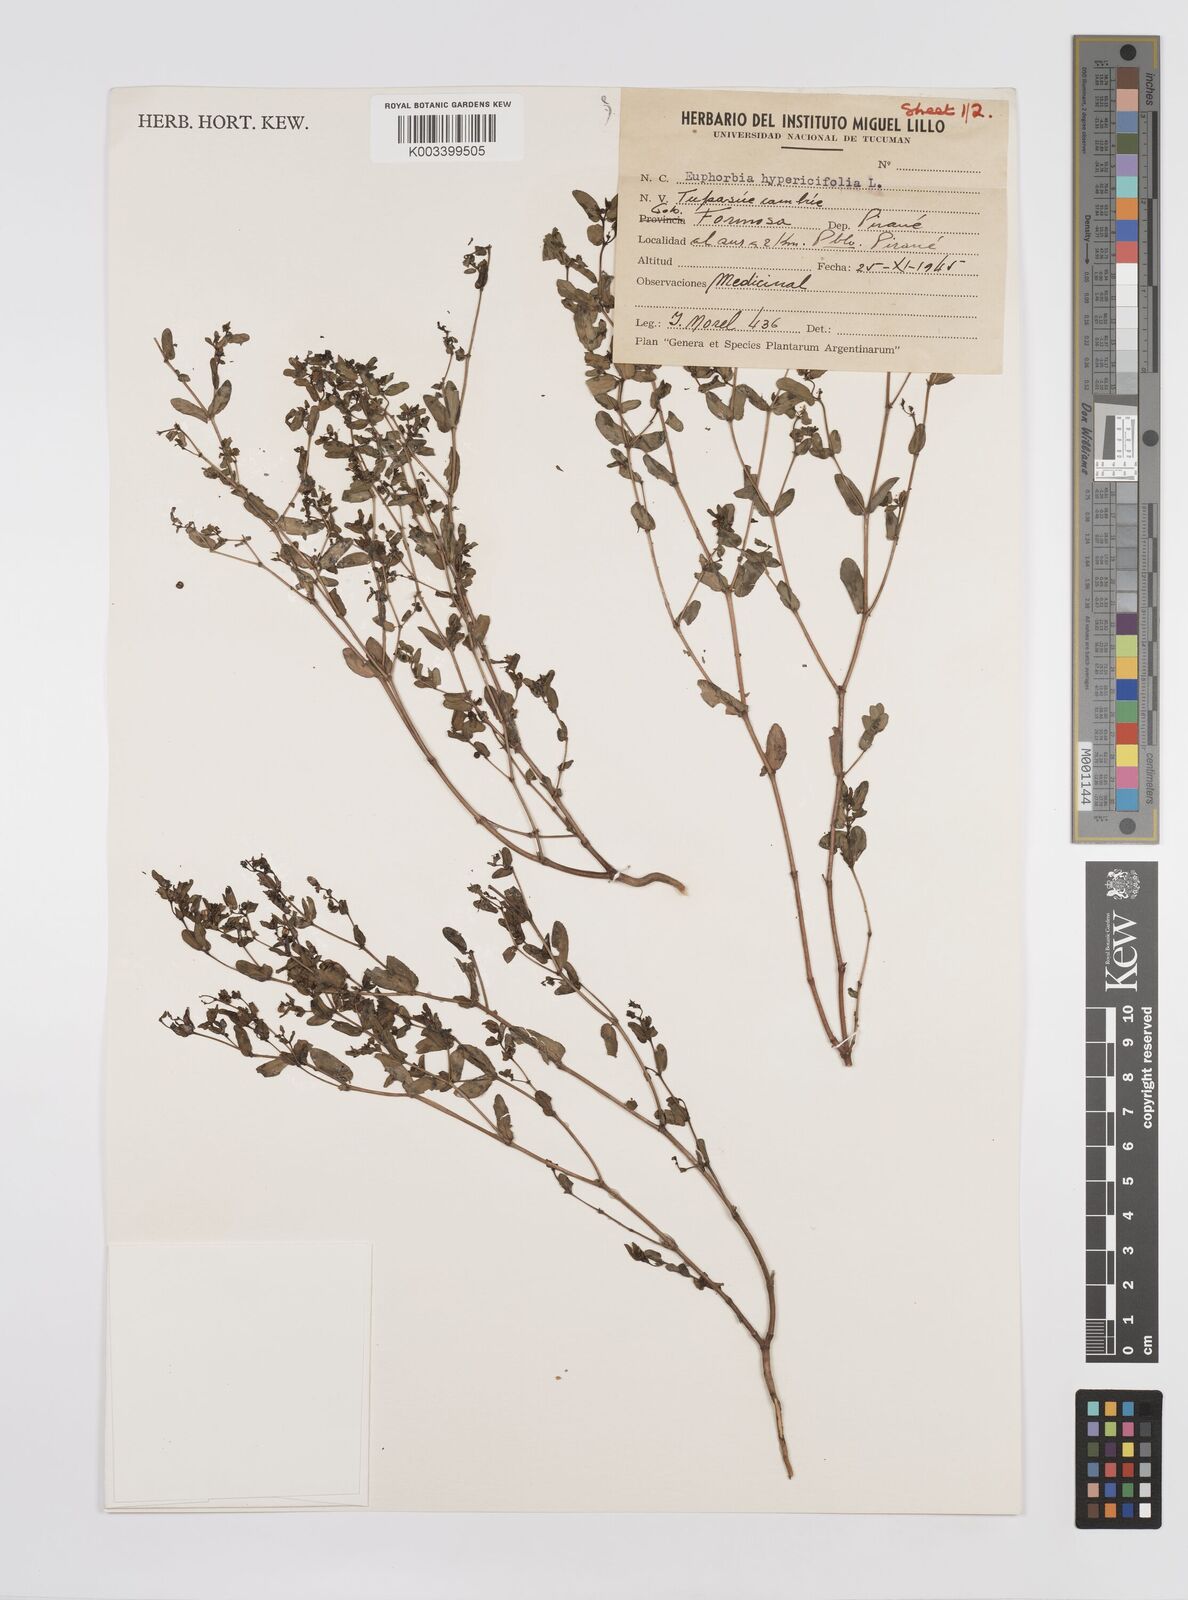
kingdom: Plantae
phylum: Tracheophyta
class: Magnoliopsida
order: Malpighiales
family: Euphorbiaceae
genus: Euphorbia
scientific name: Euphorbia hypericifolia
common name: Graceful sandmat
